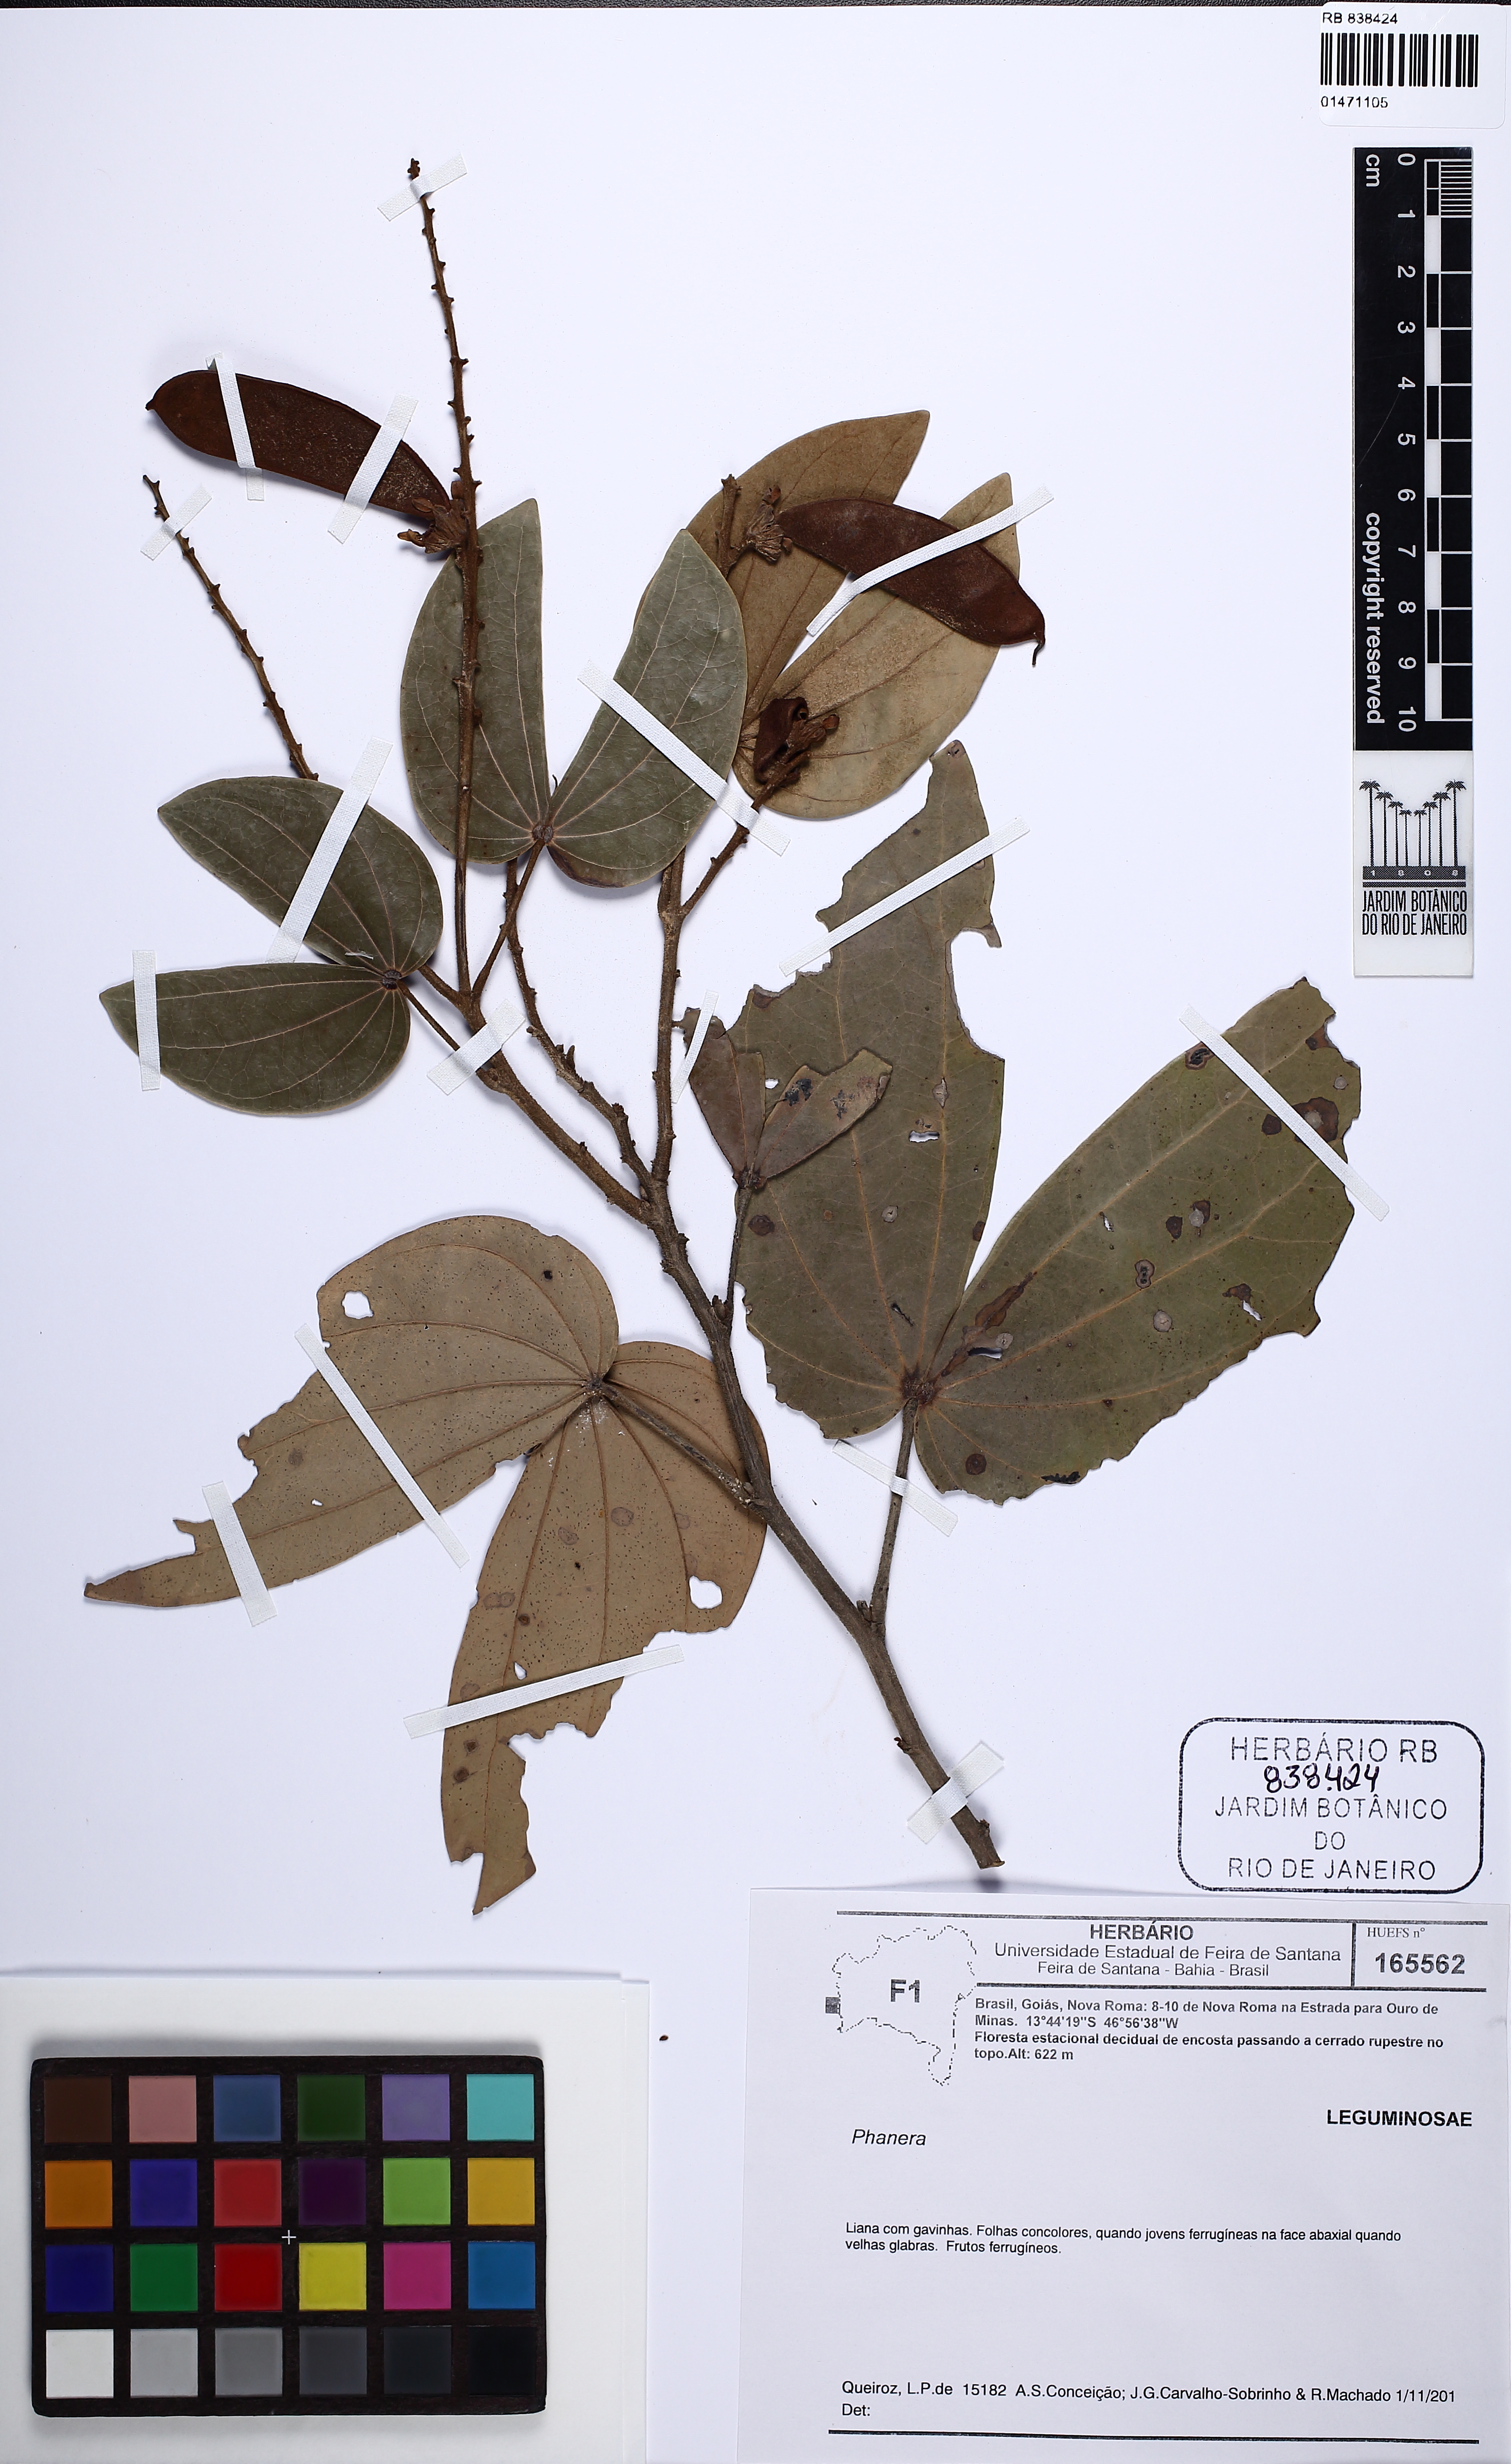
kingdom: Plantae
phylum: Tracheophyta
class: Magnoliopsida
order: Fabales
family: Fabaceae
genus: Schnella
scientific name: Schnella outimouta
